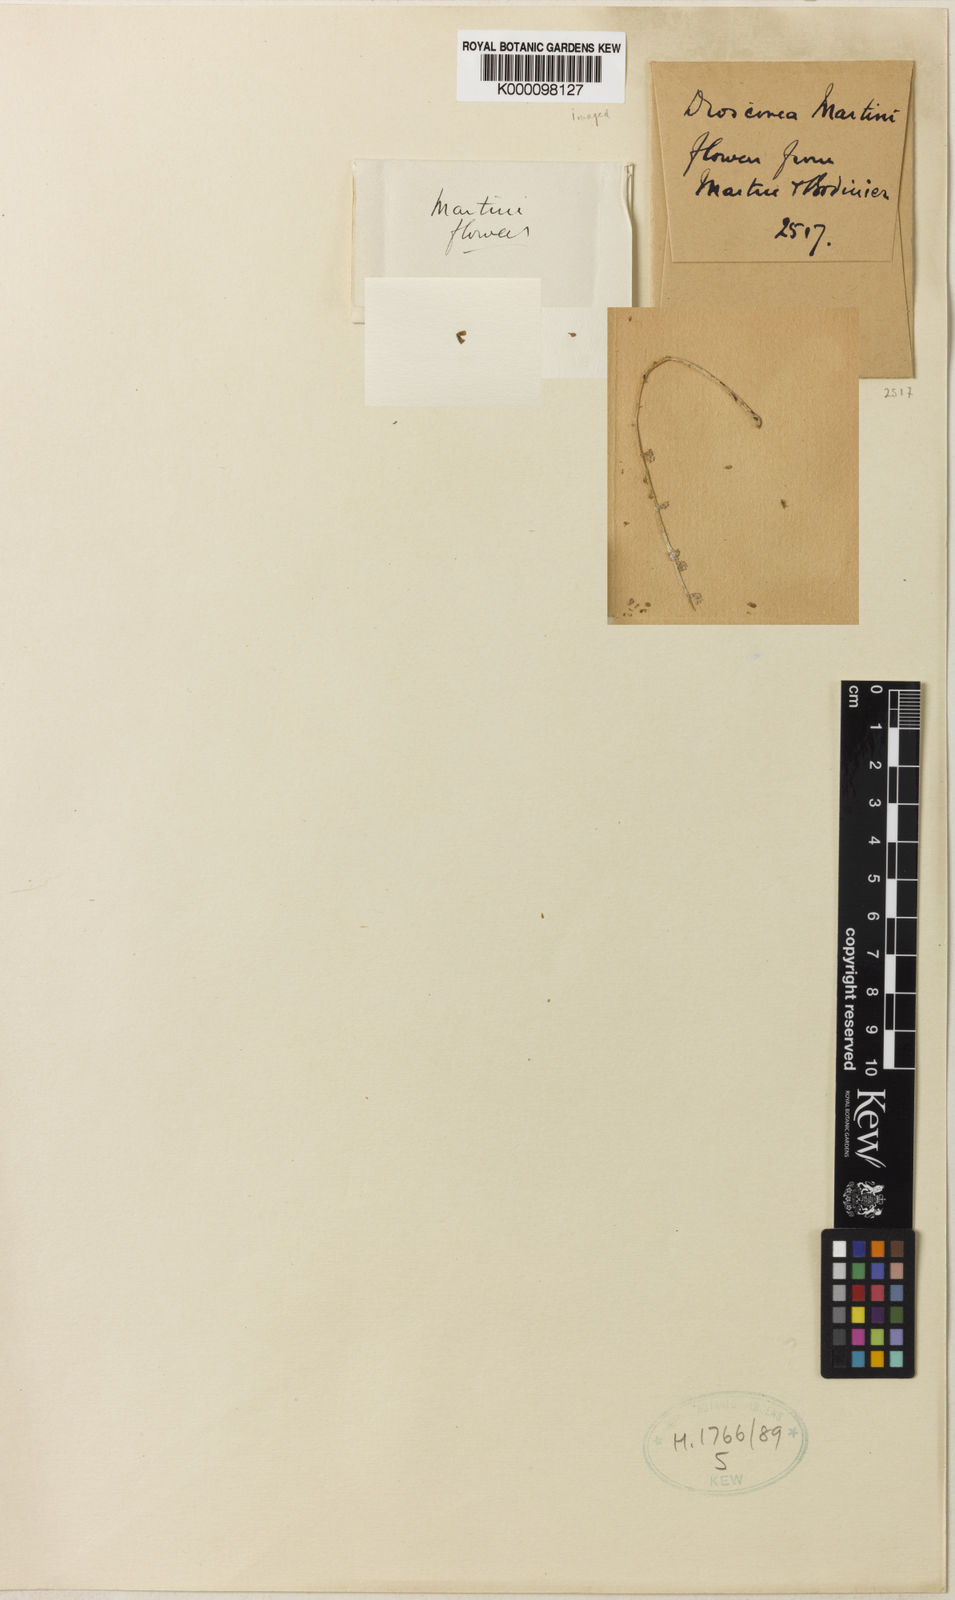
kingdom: Plantae
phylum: Tracheophyta
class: Liliopsida
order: Dioscoreales
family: Dioscoreaceae
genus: Dioscorea
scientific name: Dioscorea martini
